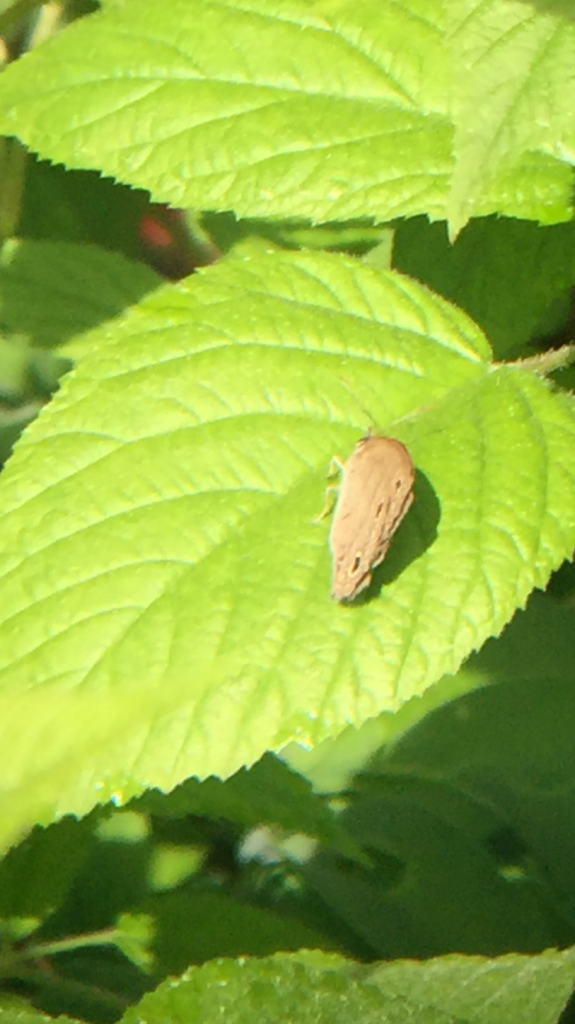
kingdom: Animalia
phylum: Arthropoda
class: Insecta
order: Lepidoptera
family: Nymphalidae
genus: Euptychia
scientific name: Euptychia cymela
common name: Little Wood Satyr
